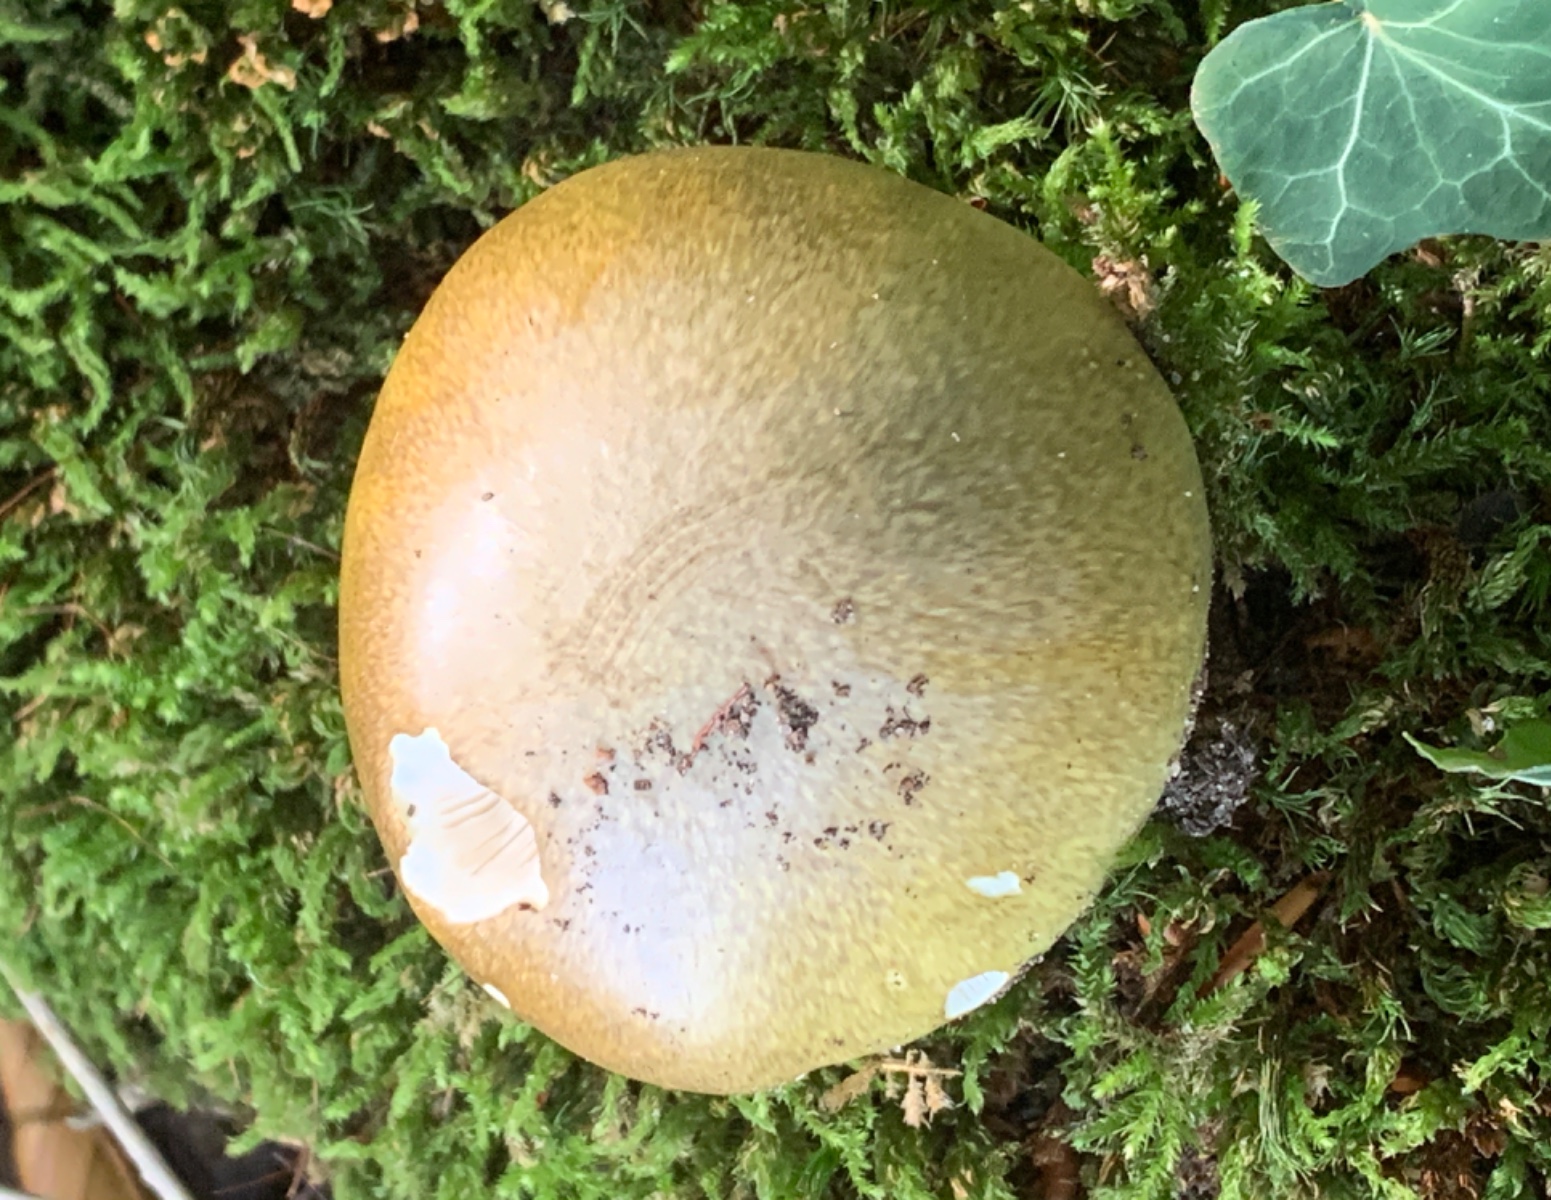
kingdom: Fungi
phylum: Basidiomycota
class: Agaricomycetes
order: Agaricales
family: Amanitaceae
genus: Amanita
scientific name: Amanita phalloides
